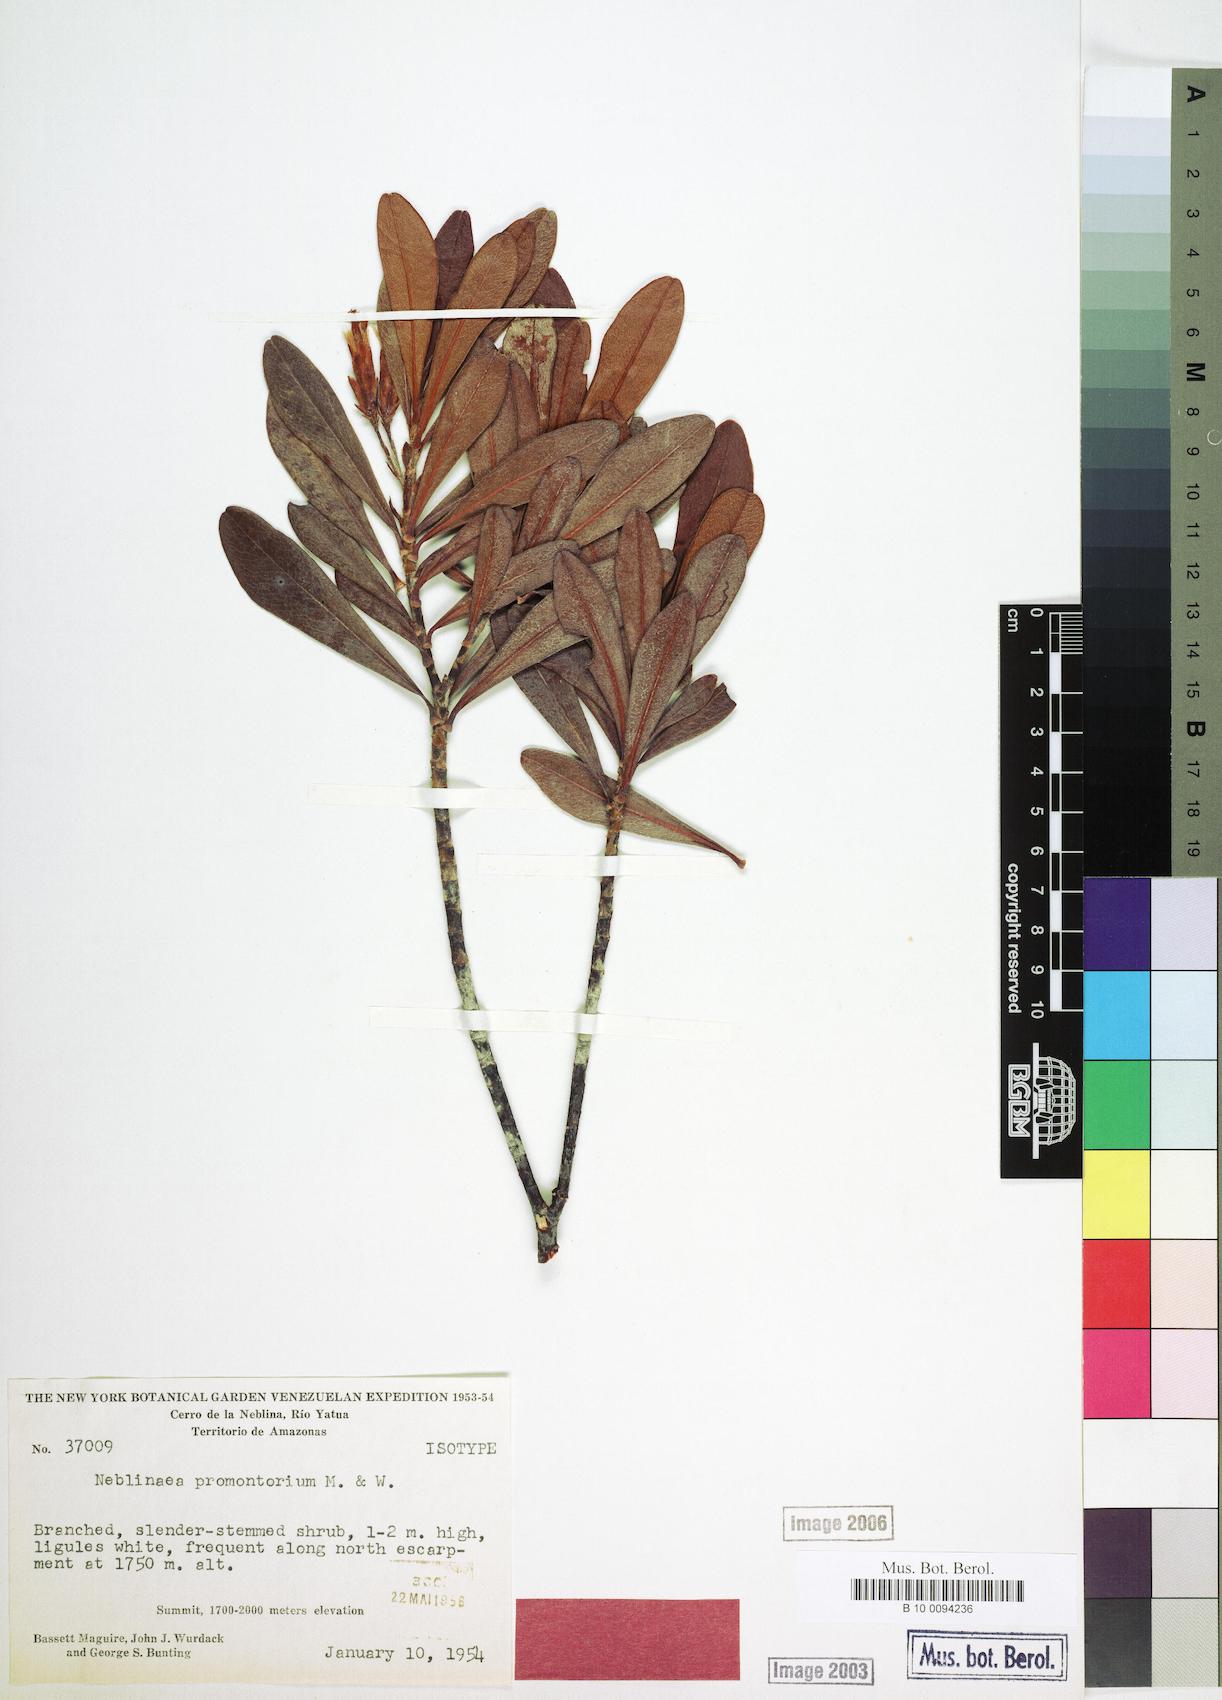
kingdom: Plantae
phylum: Tracheophyta
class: Magnoliopsida
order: Asterales
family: Asteraceae
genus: Neblinaea
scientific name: Neblinaea promontoriorum
